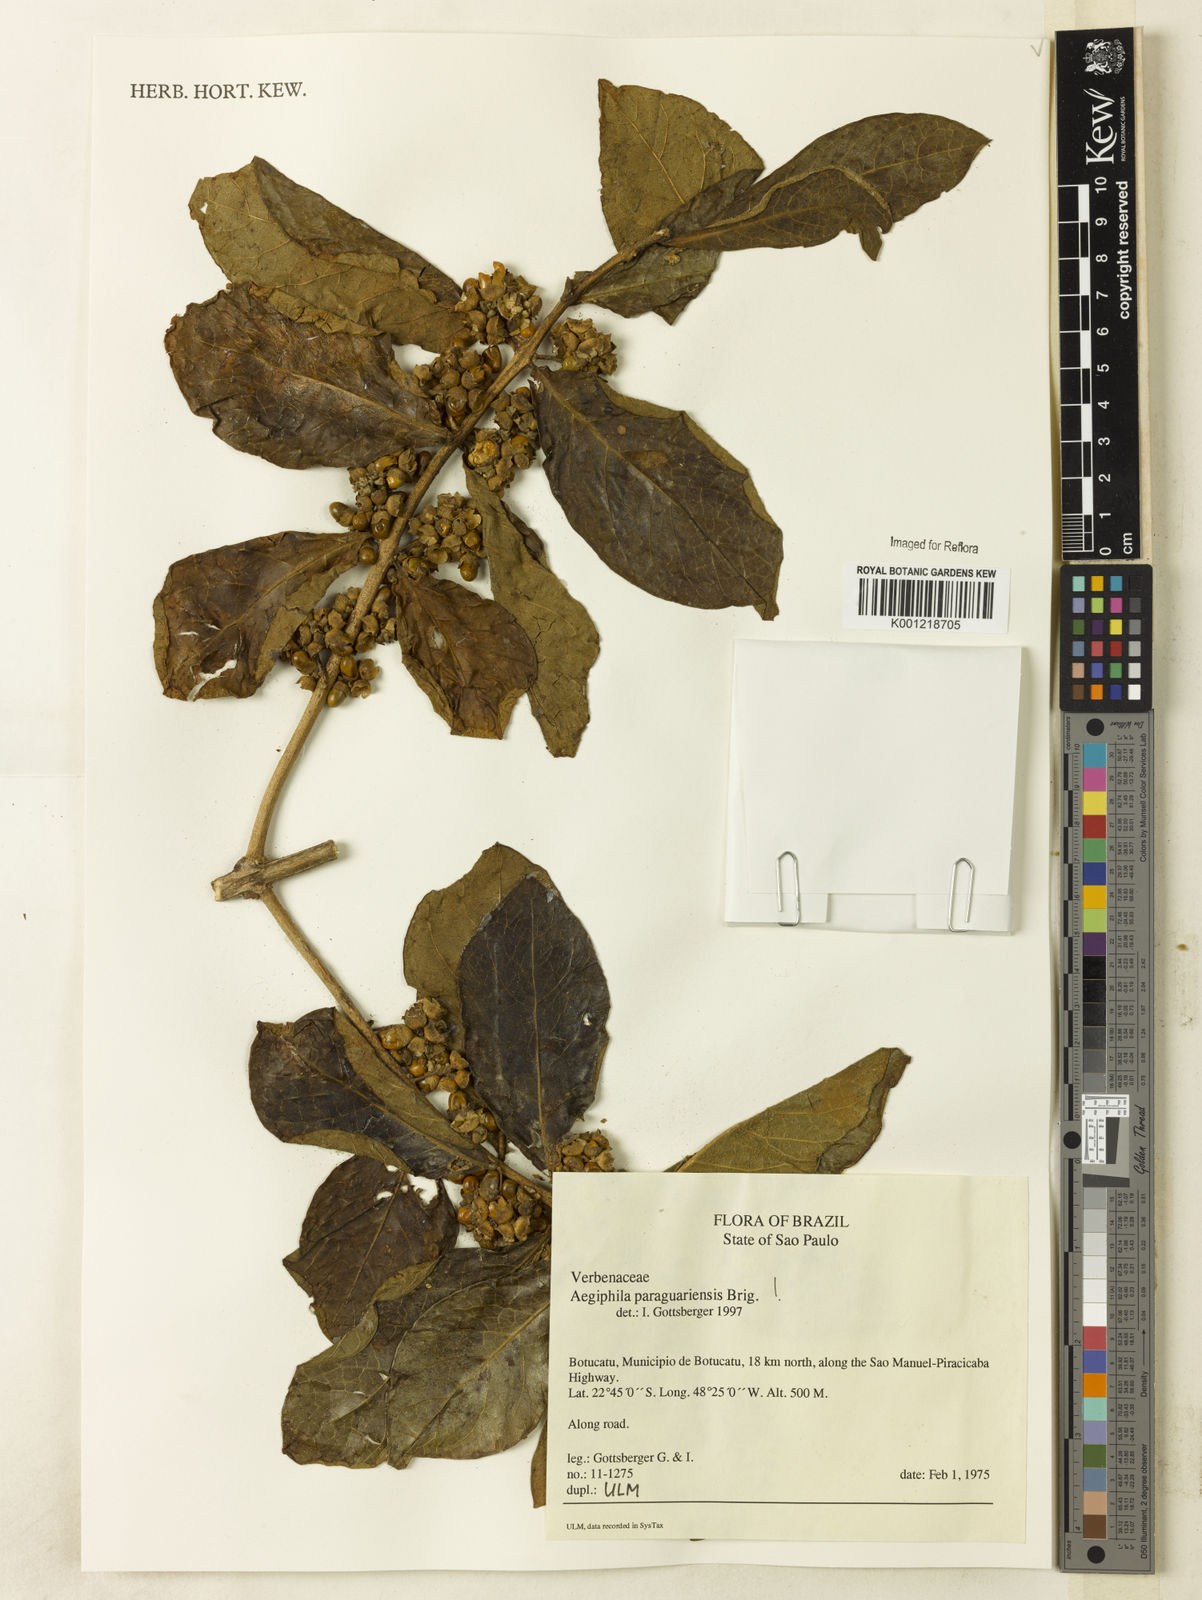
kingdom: Plantae
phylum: Tracheophyta
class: Magnoliopsida
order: Lamiales
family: Lamiaceae
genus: Aegiphila
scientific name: Aegiphila paraguariensis
